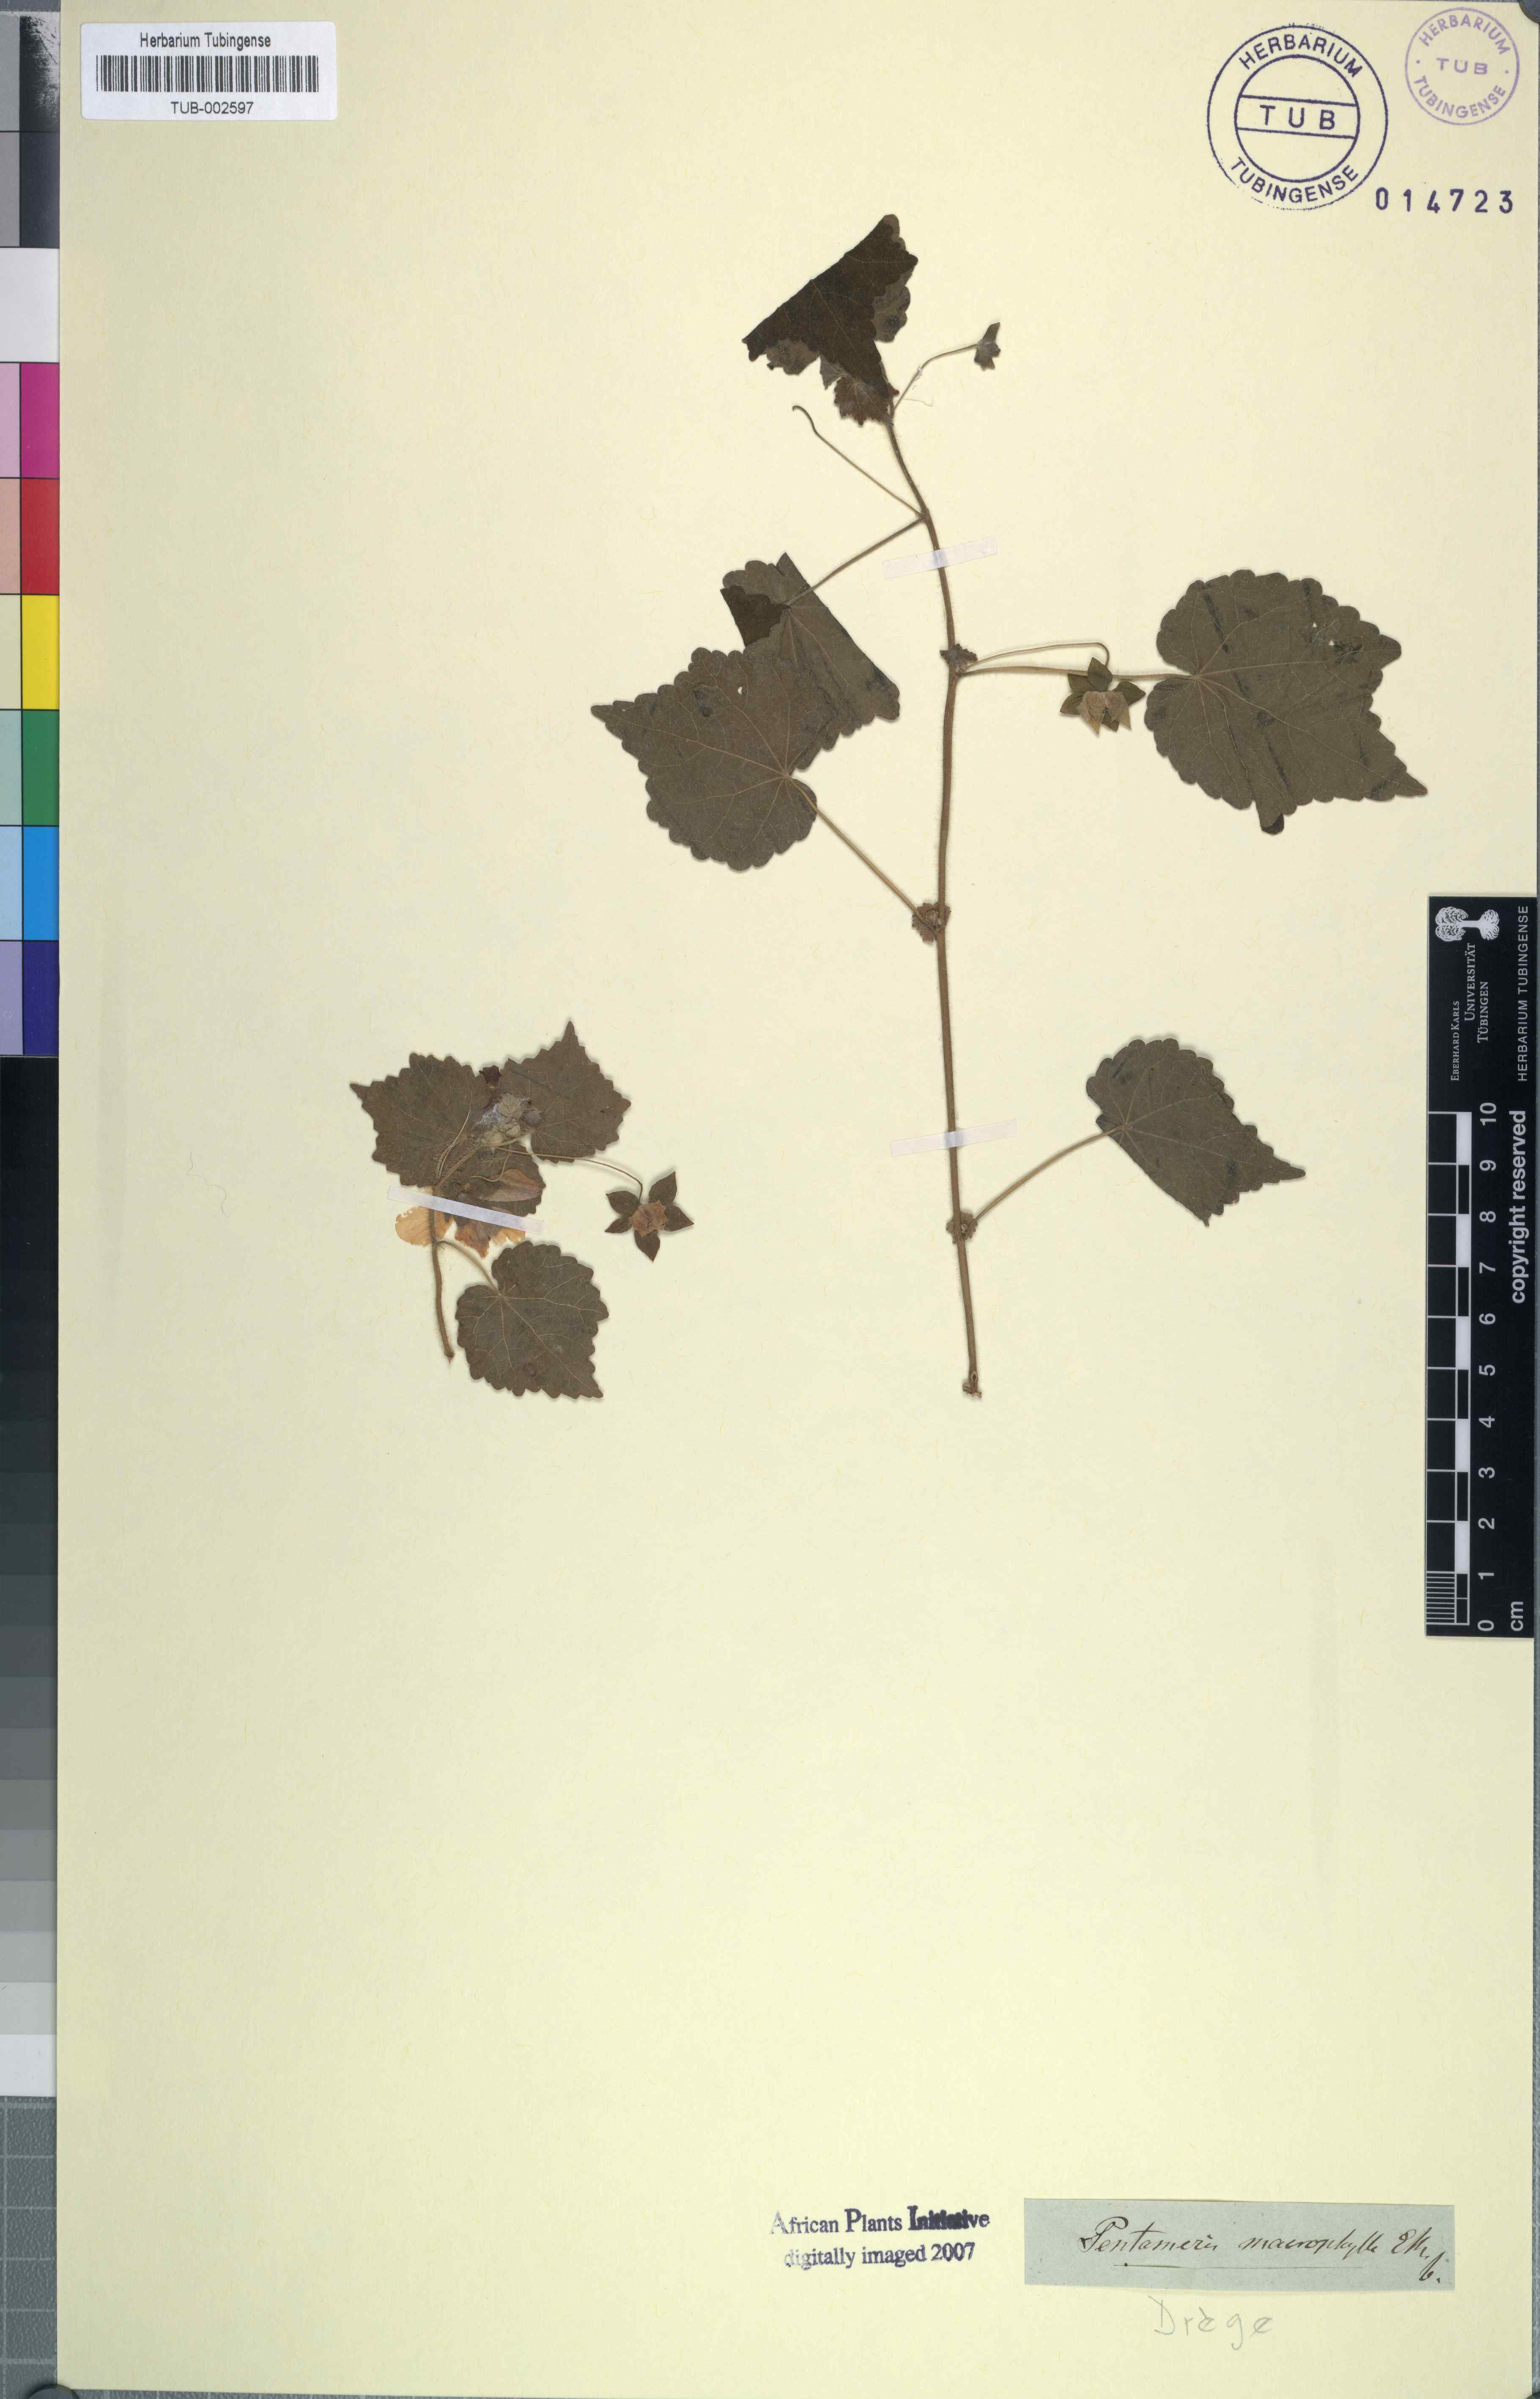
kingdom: Plantae
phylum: Tracheophyta
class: Magnoliopsida
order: Malvales
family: Malvaceae
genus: Pavonia
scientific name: Pavonia burchellii
